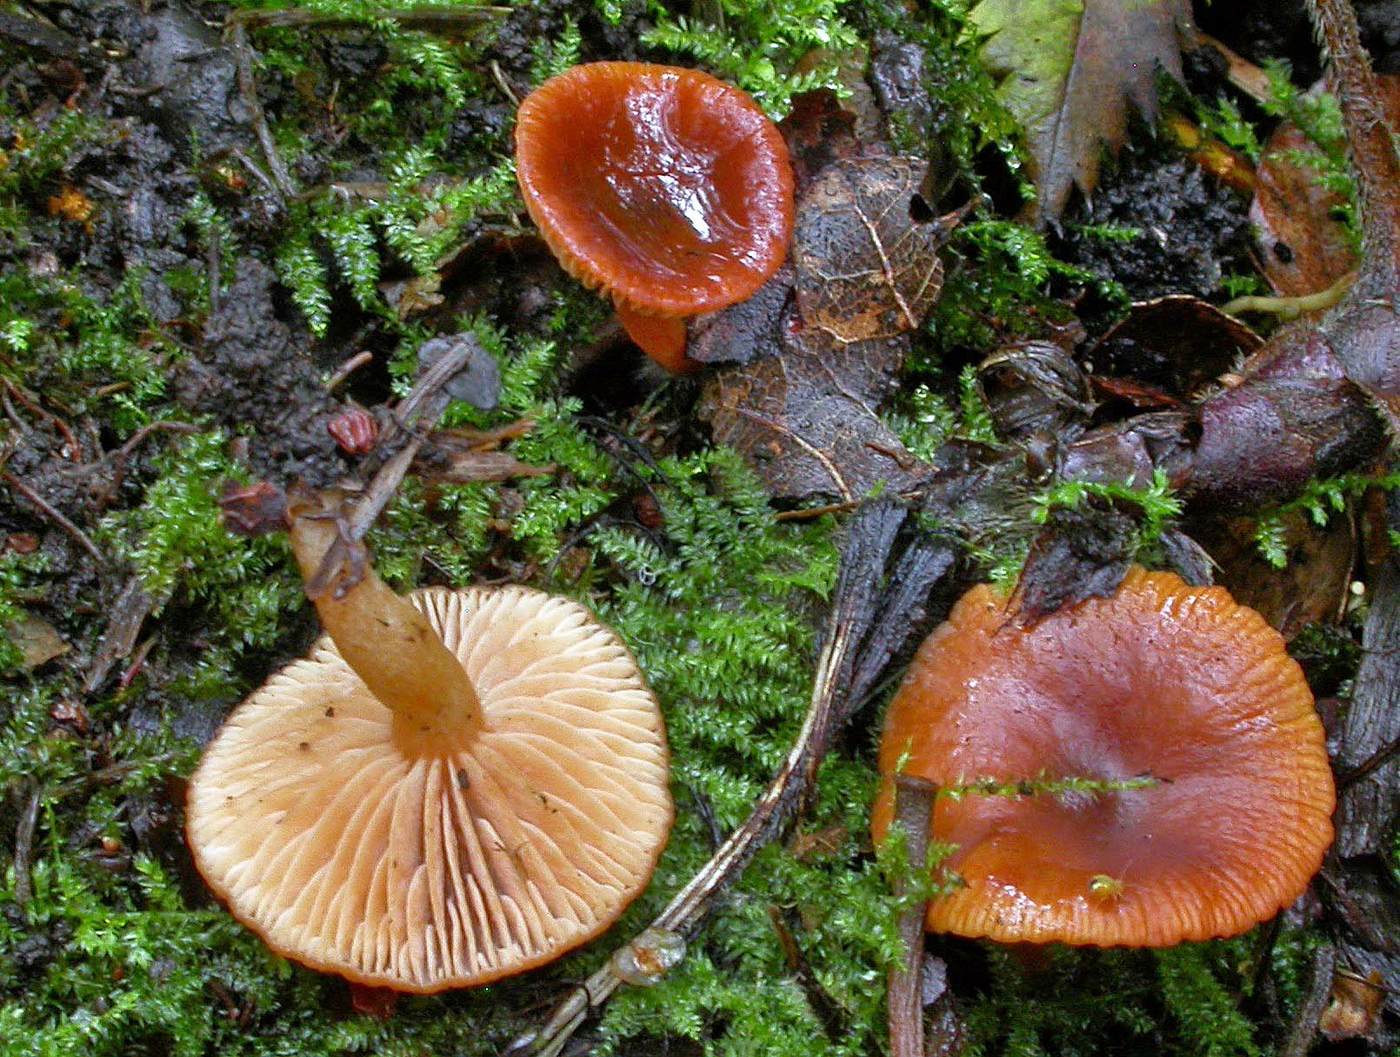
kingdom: Fungi
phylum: Basidiomycota
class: Agaricomycetes
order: Russulales
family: Russulaceae
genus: Lactarius
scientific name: Lactarius obscuratus
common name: elle-mælkehat
